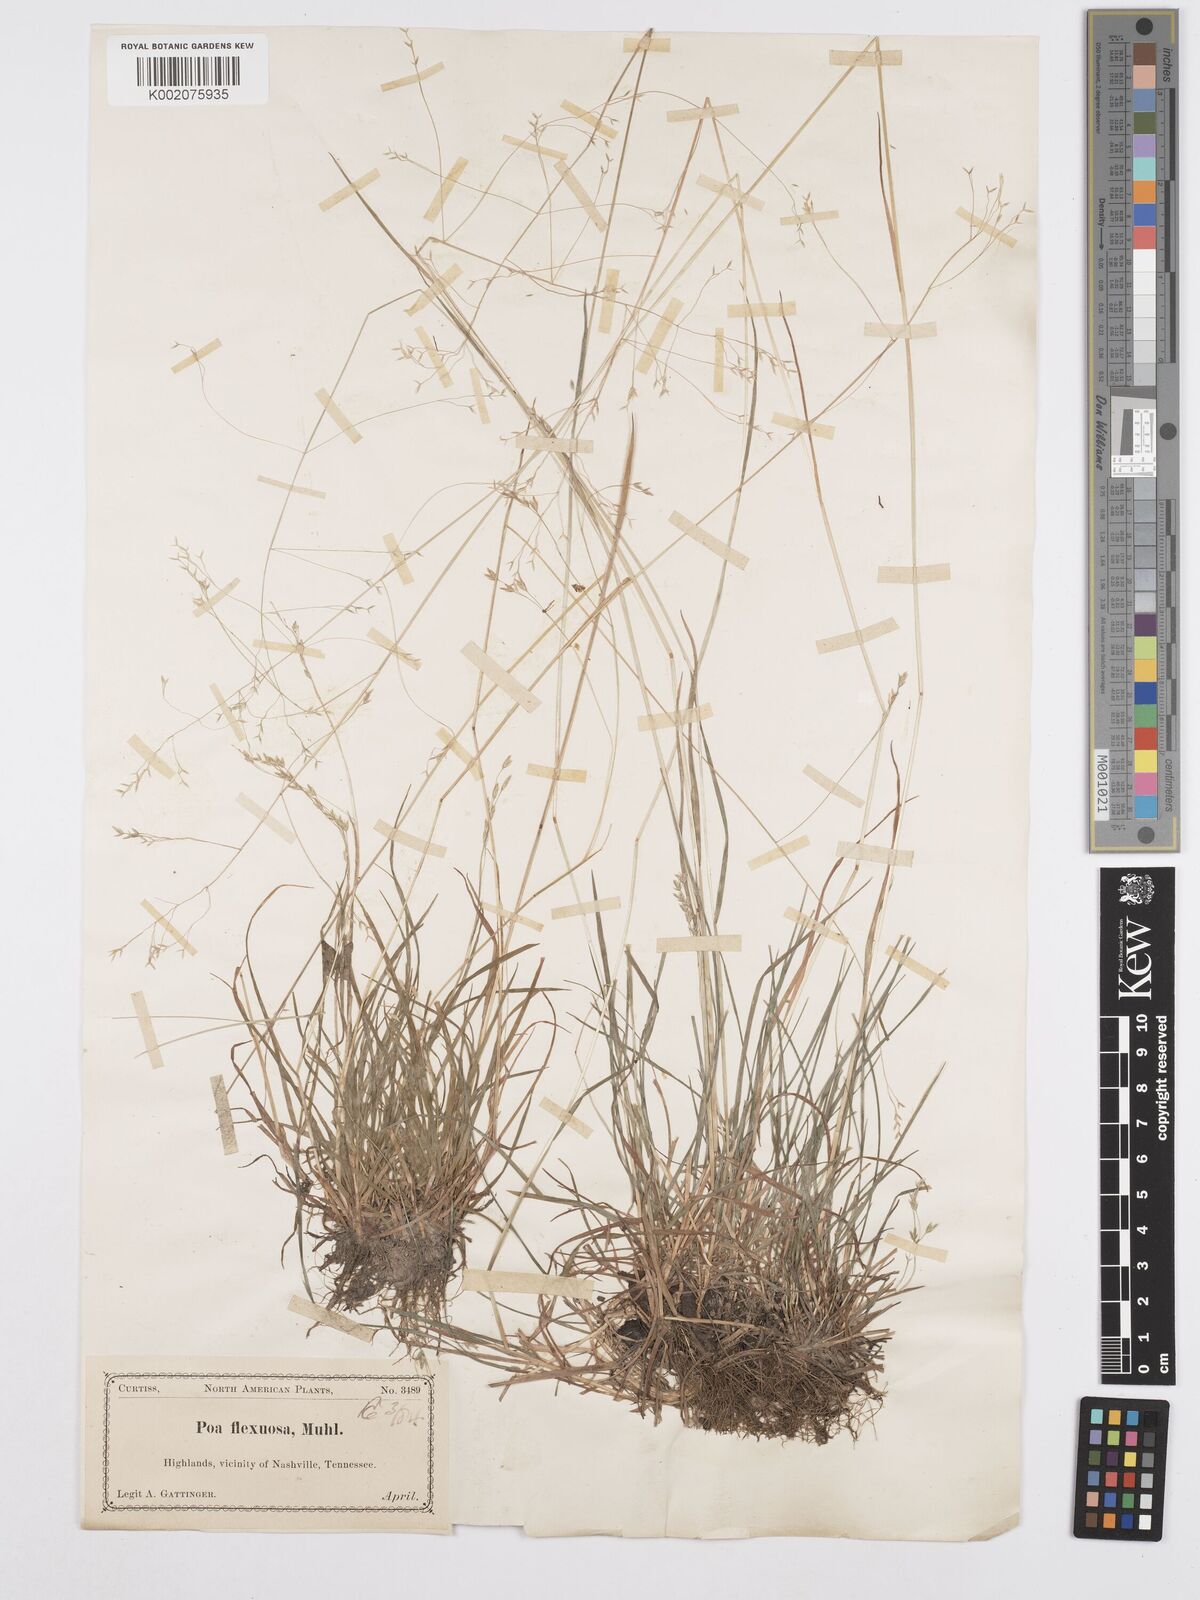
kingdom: Plantae
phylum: Tracheophyta
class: Liliopsida
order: Poales
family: Poaceae
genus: Poa
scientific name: Poa autumnalis
